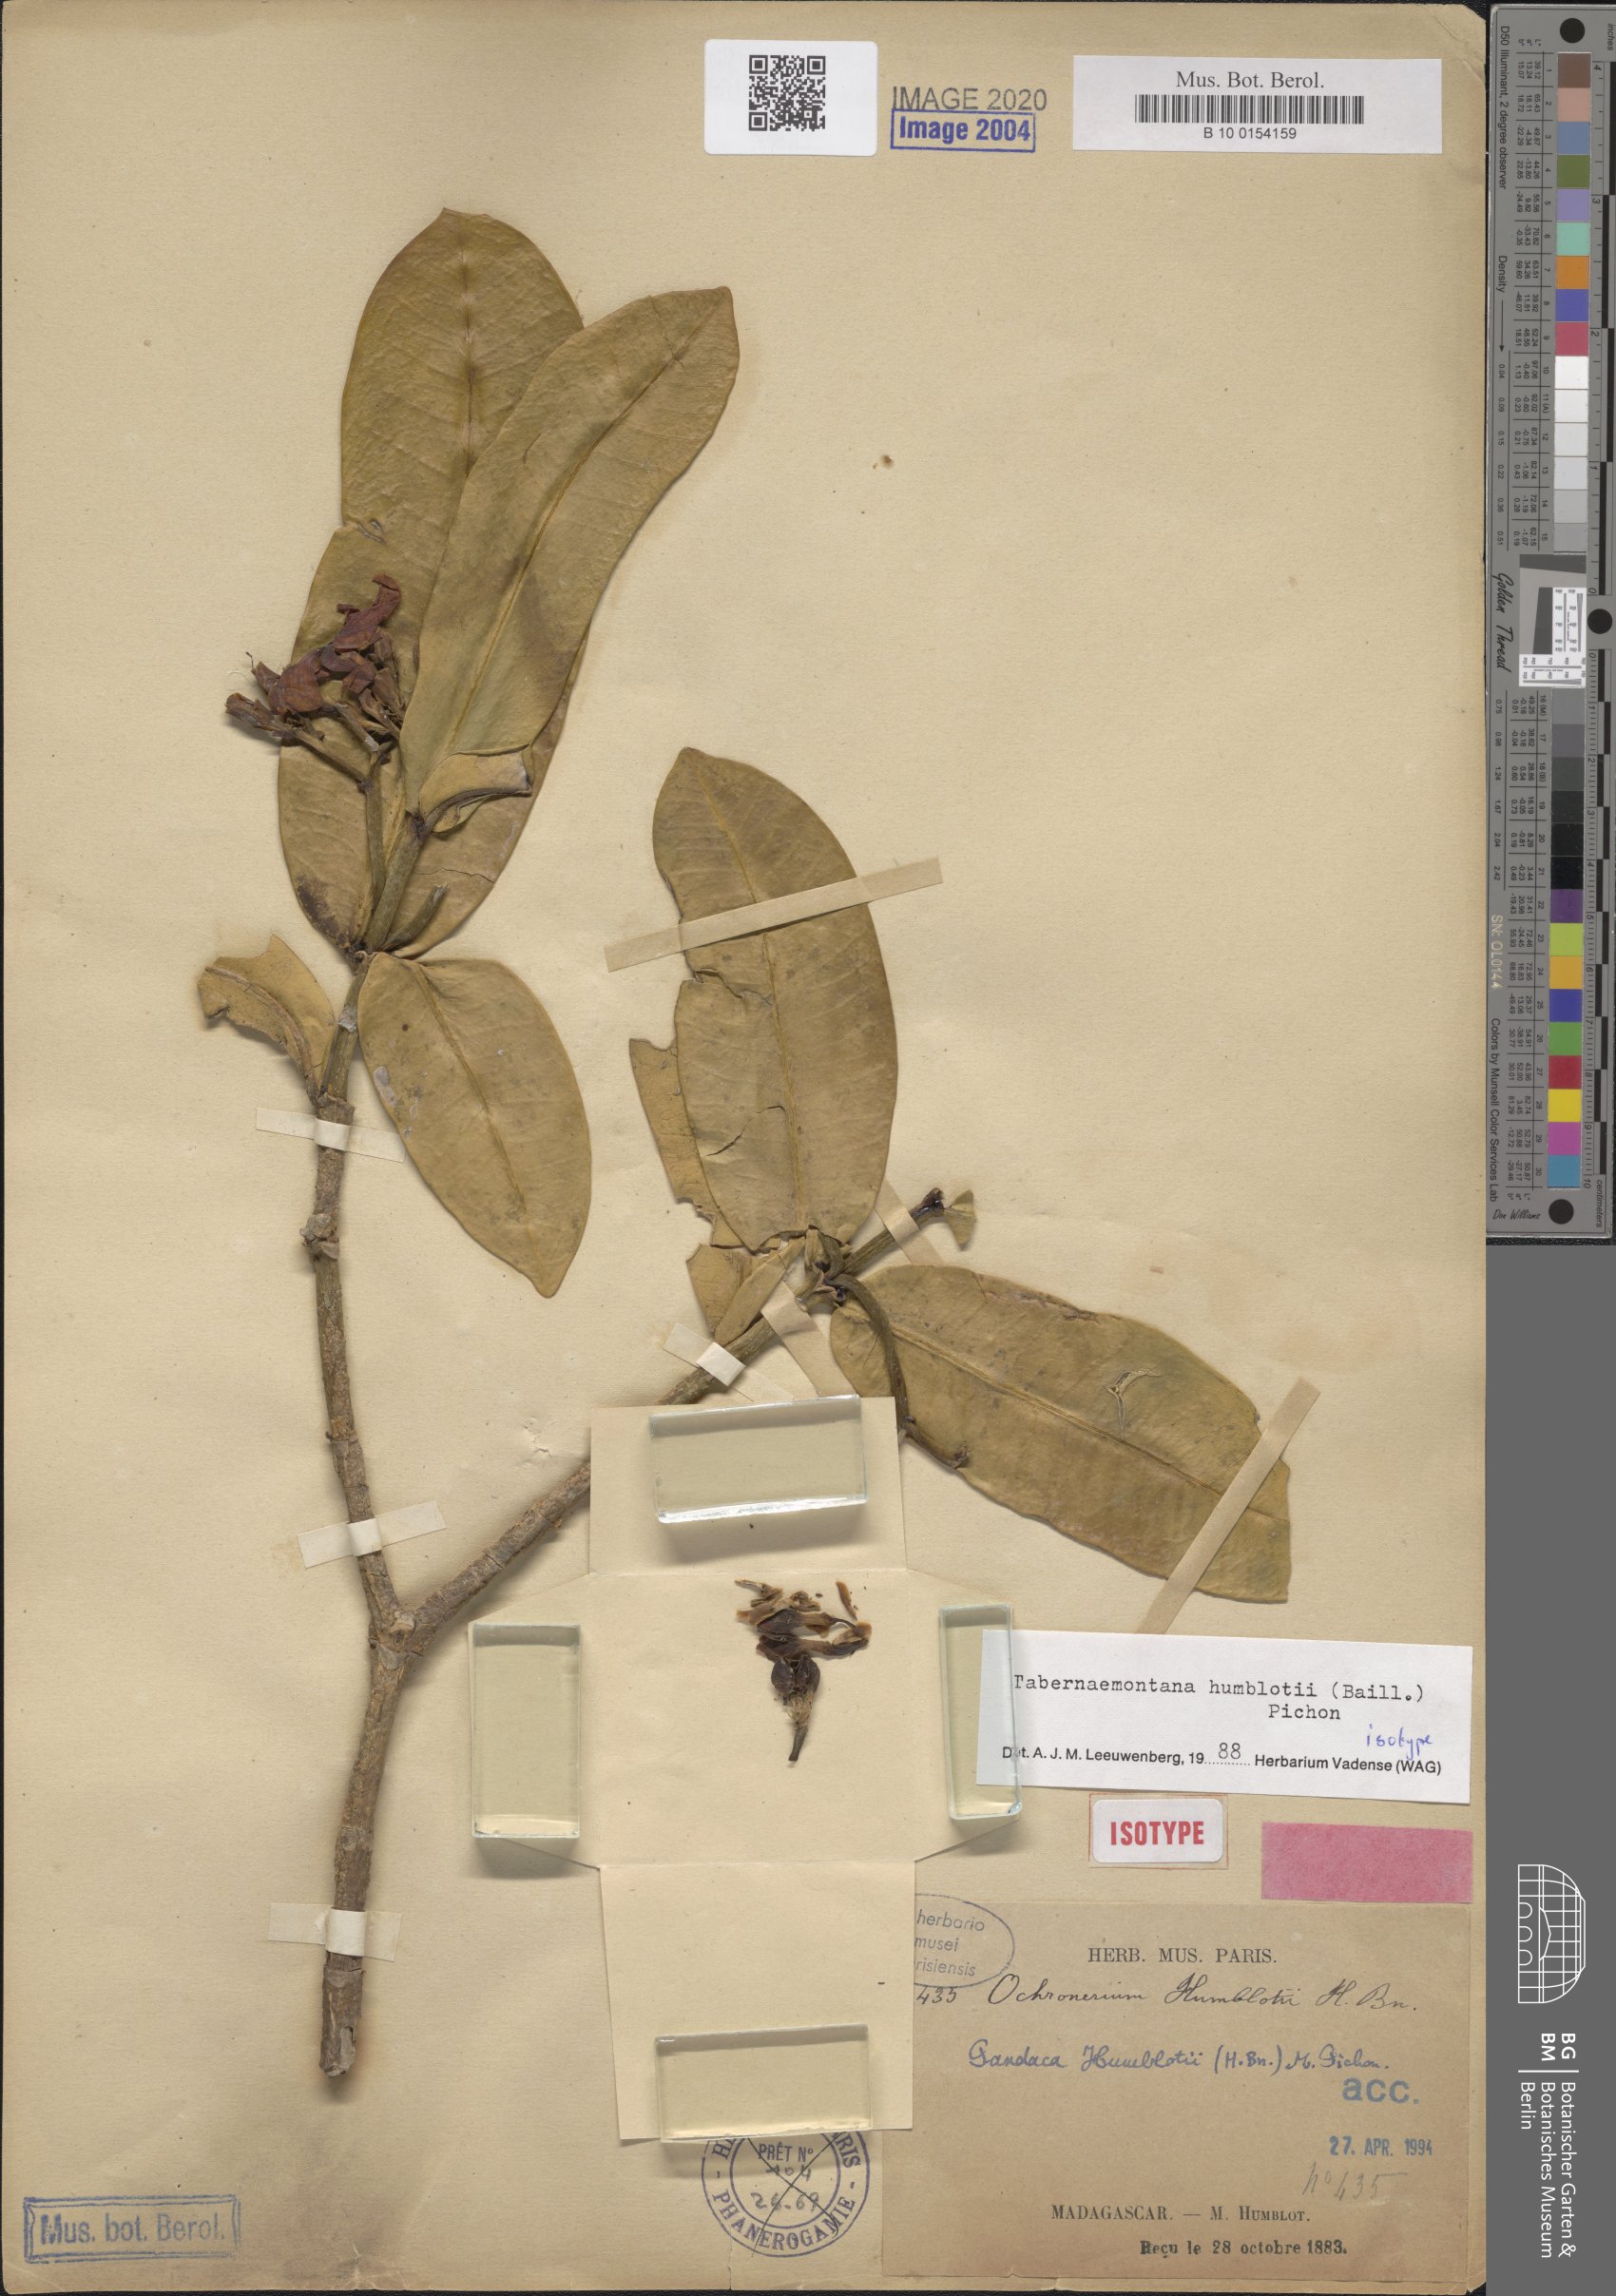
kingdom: Plantae
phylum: Tracheophyta
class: Magnoliopsida
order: Gentianales
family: Apocynaceae
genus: Tabernaemontana
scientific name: Tabernaemontana humblotii
